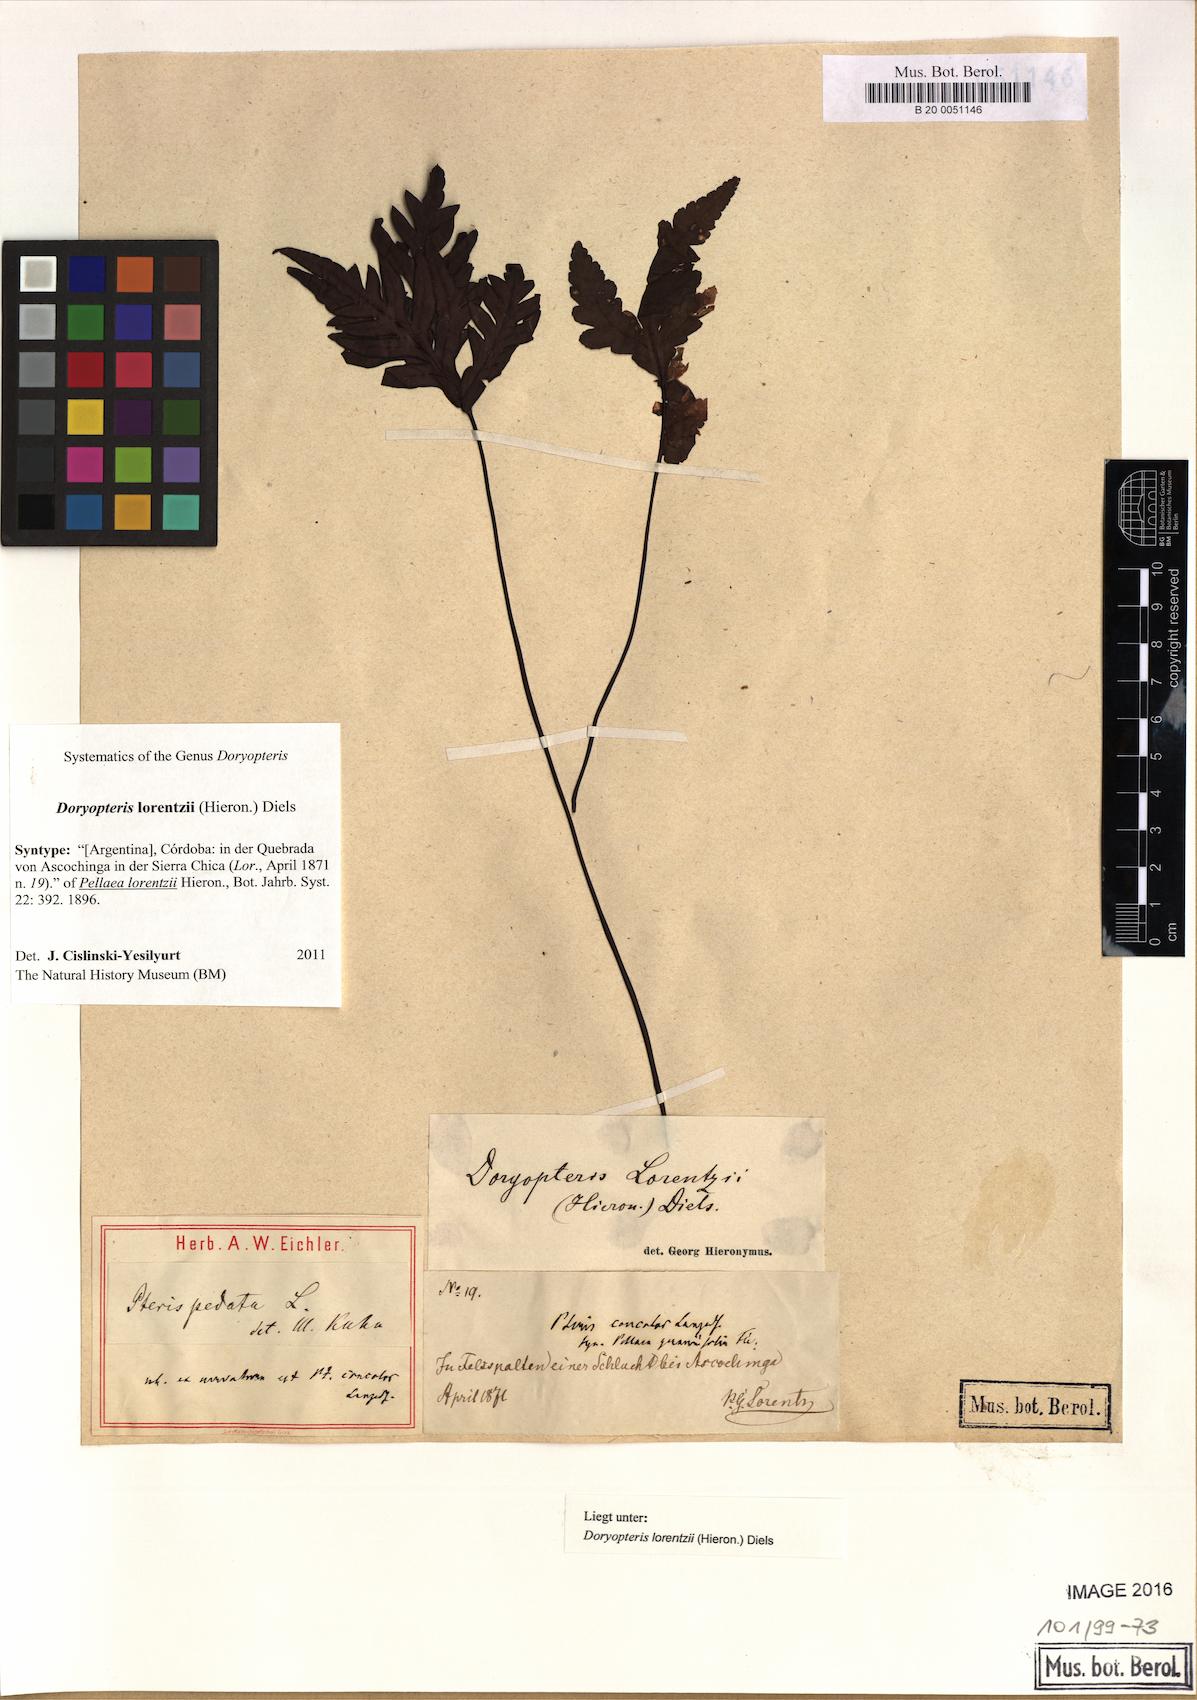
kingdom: Plantae
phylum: Tracheophyta
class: Polypodiopsida
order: Polypodiales
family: Pteridaceae
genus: Doryopteris
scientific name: Doryopteris lorentzii
